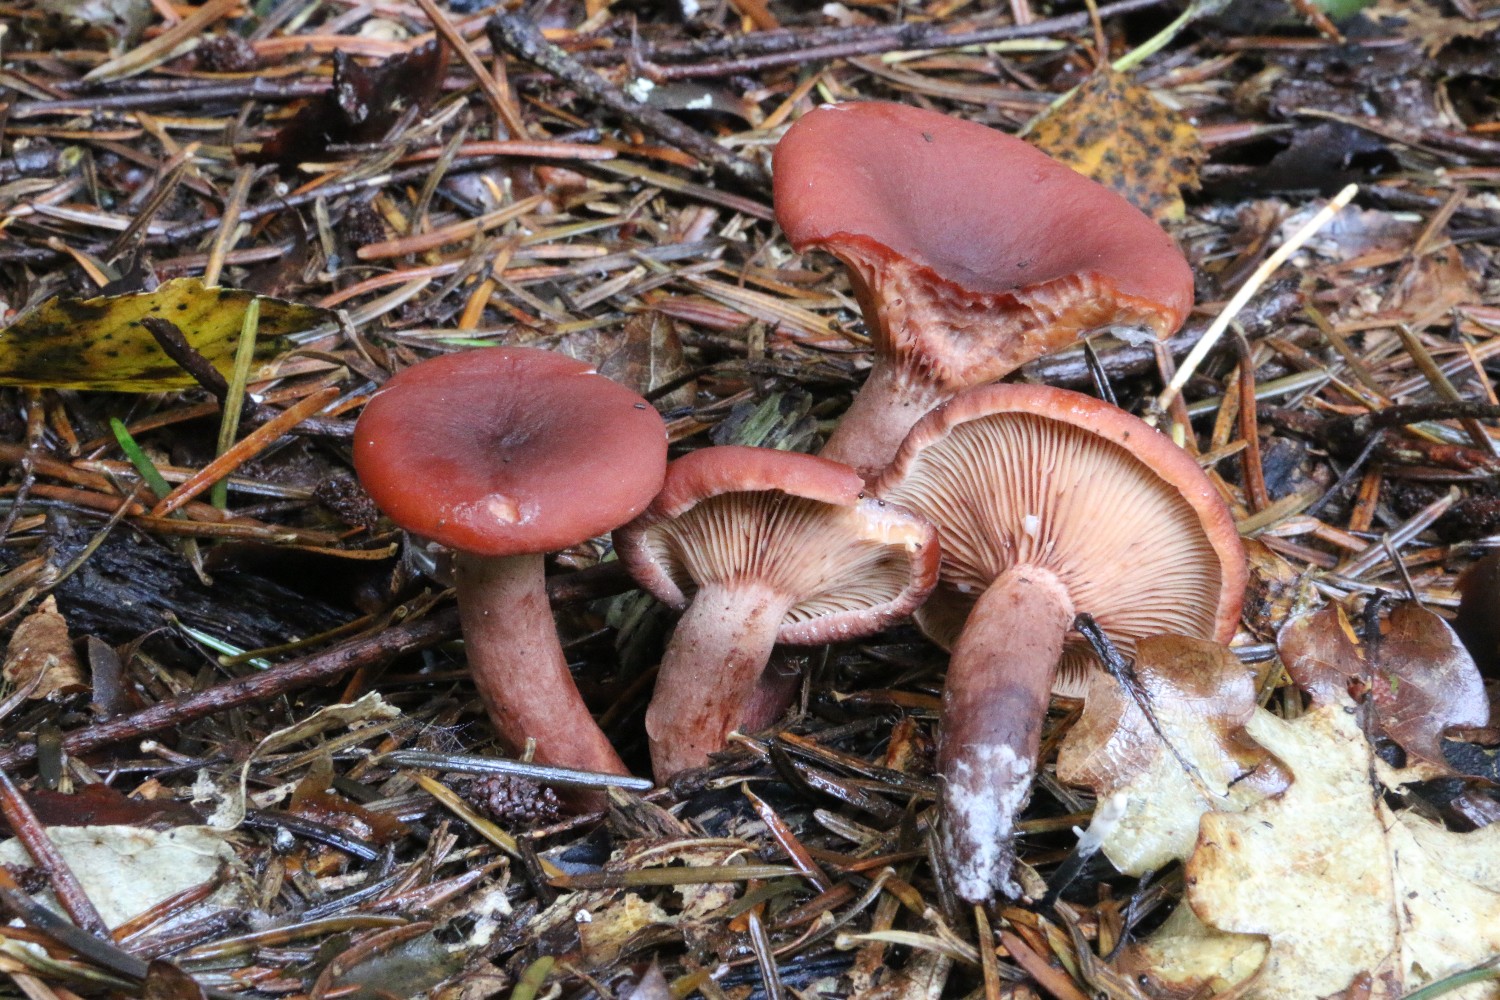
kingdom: Fungi
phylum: Basidiomycota
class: Agaricomycetes
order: Russulales
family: Russulaceae
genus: Lactarius
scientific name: Lactarius camphoratus
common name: kamfer-mælkehat
